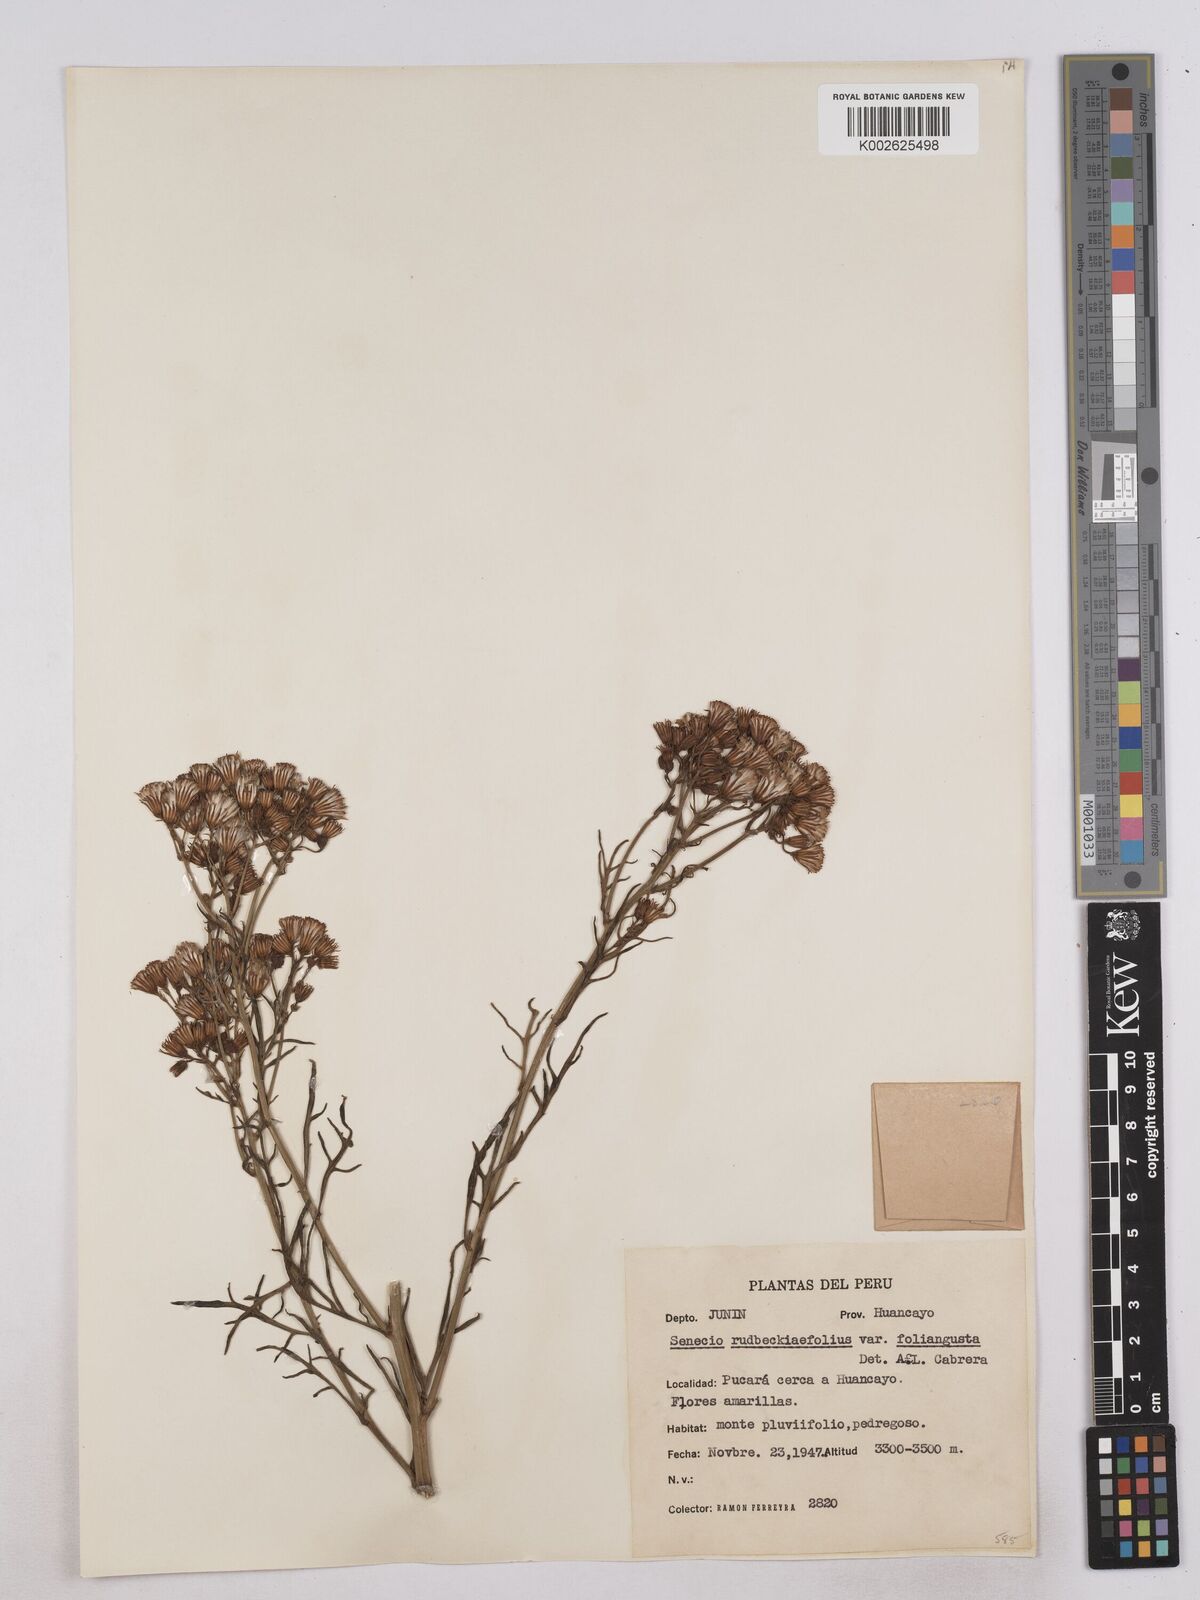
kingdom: Plantae
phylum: Tracheophyta
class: Magnoliopsida
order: Asterales
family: Asteraceae
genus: Senecio
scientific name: Senecio rudbeckiifolius
